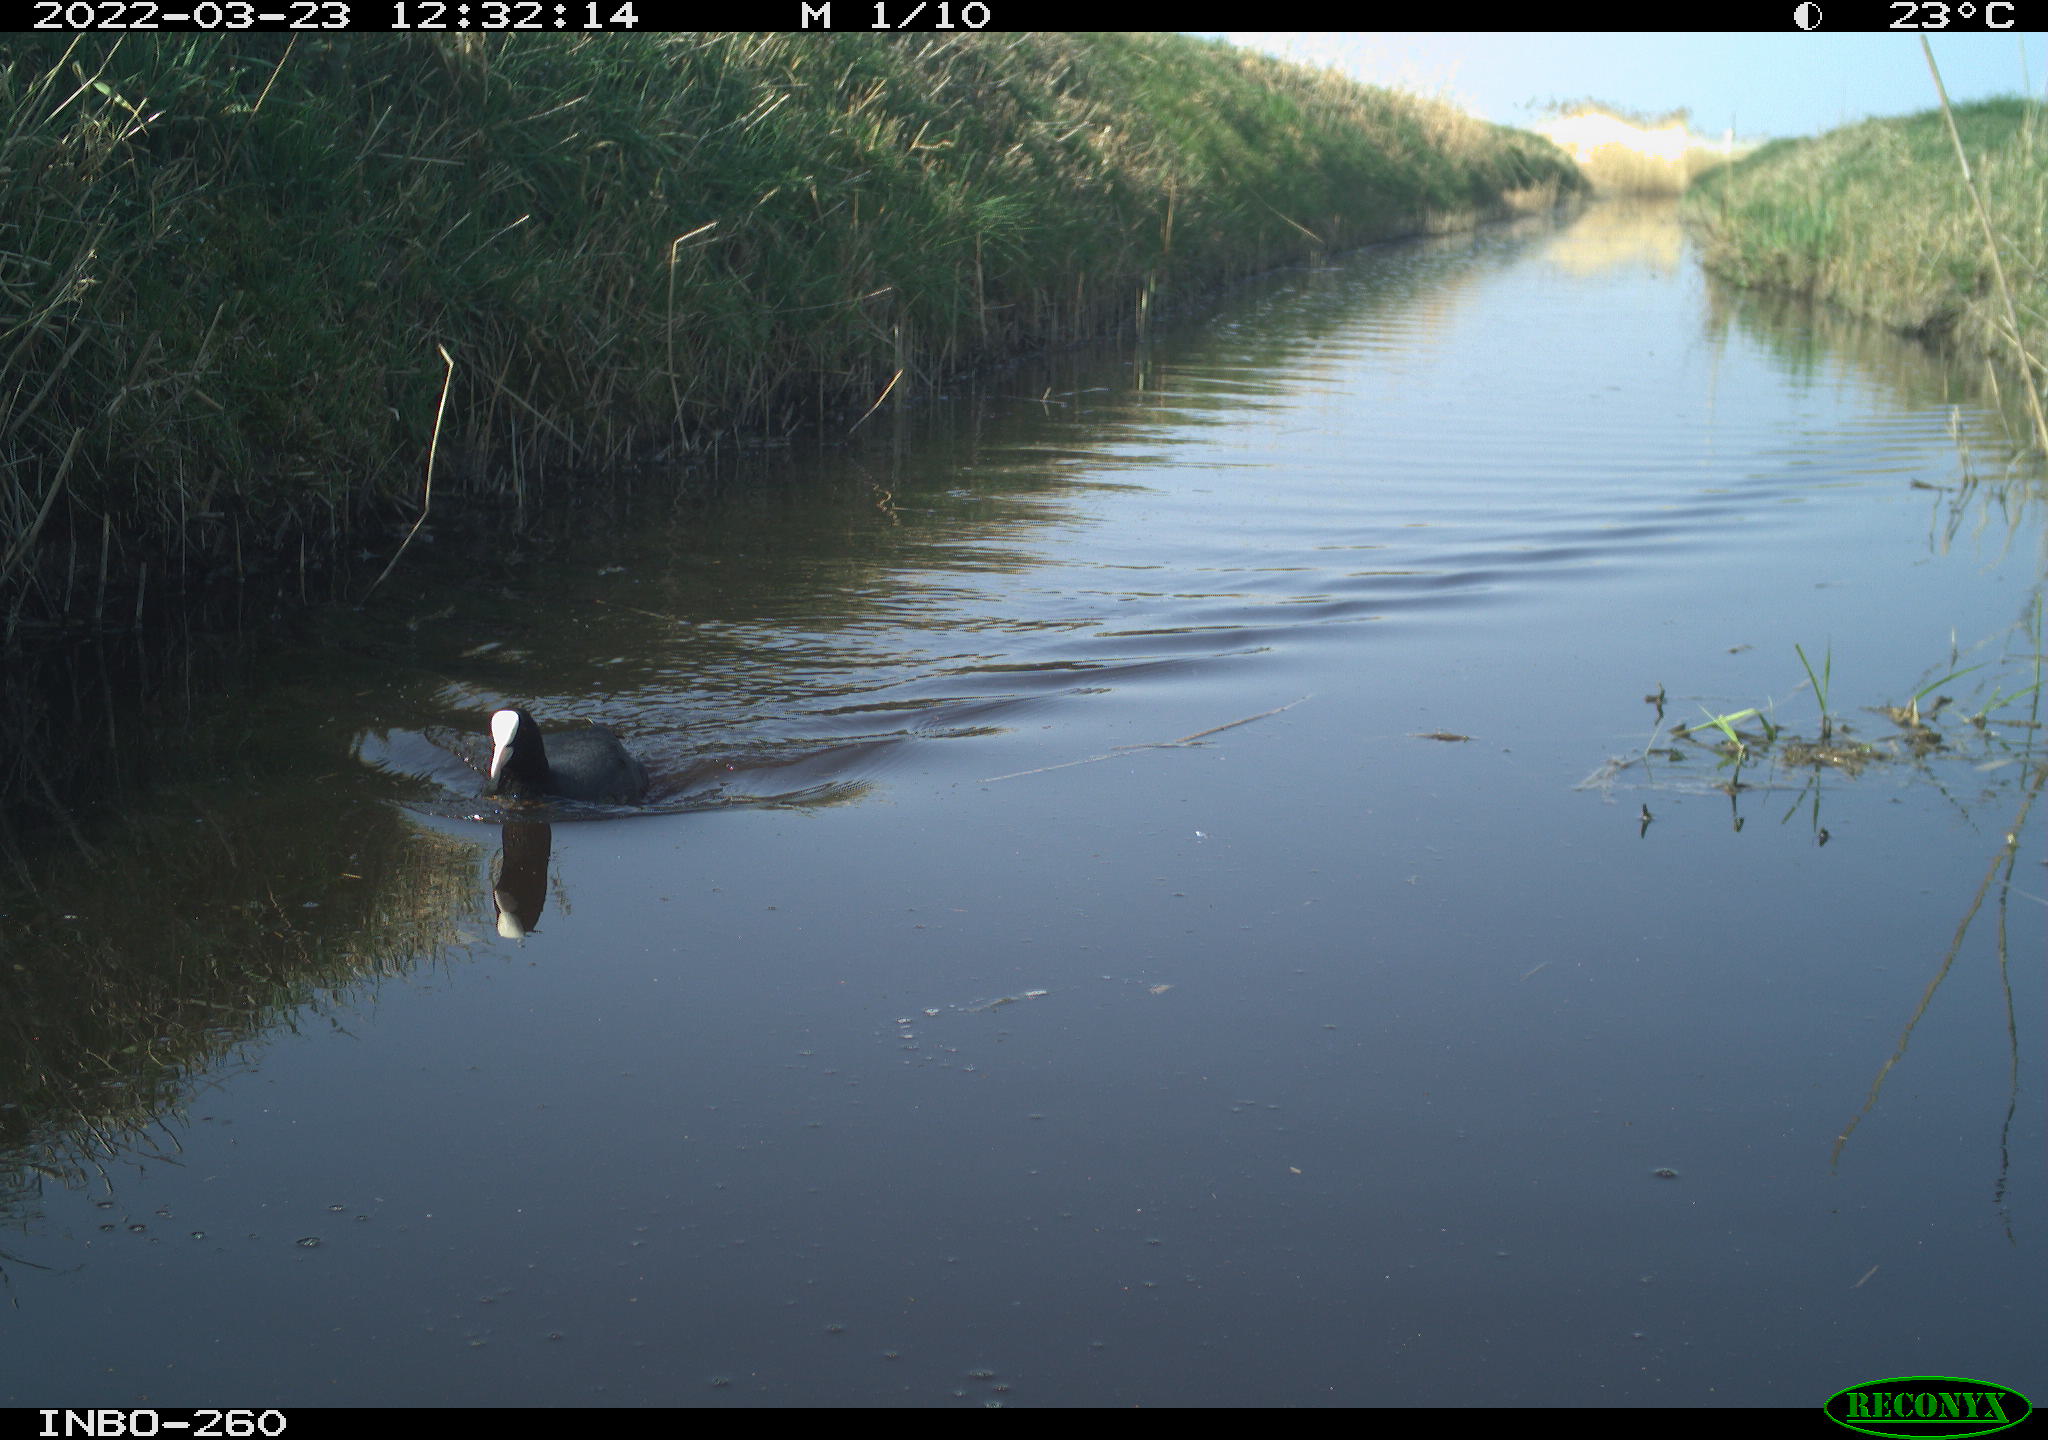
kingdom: Animalia
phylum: Chordata
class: Aves
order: Gruiformes
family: Rallidae
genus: Fulica
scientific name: Fulica atra
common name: Eurasian coot
